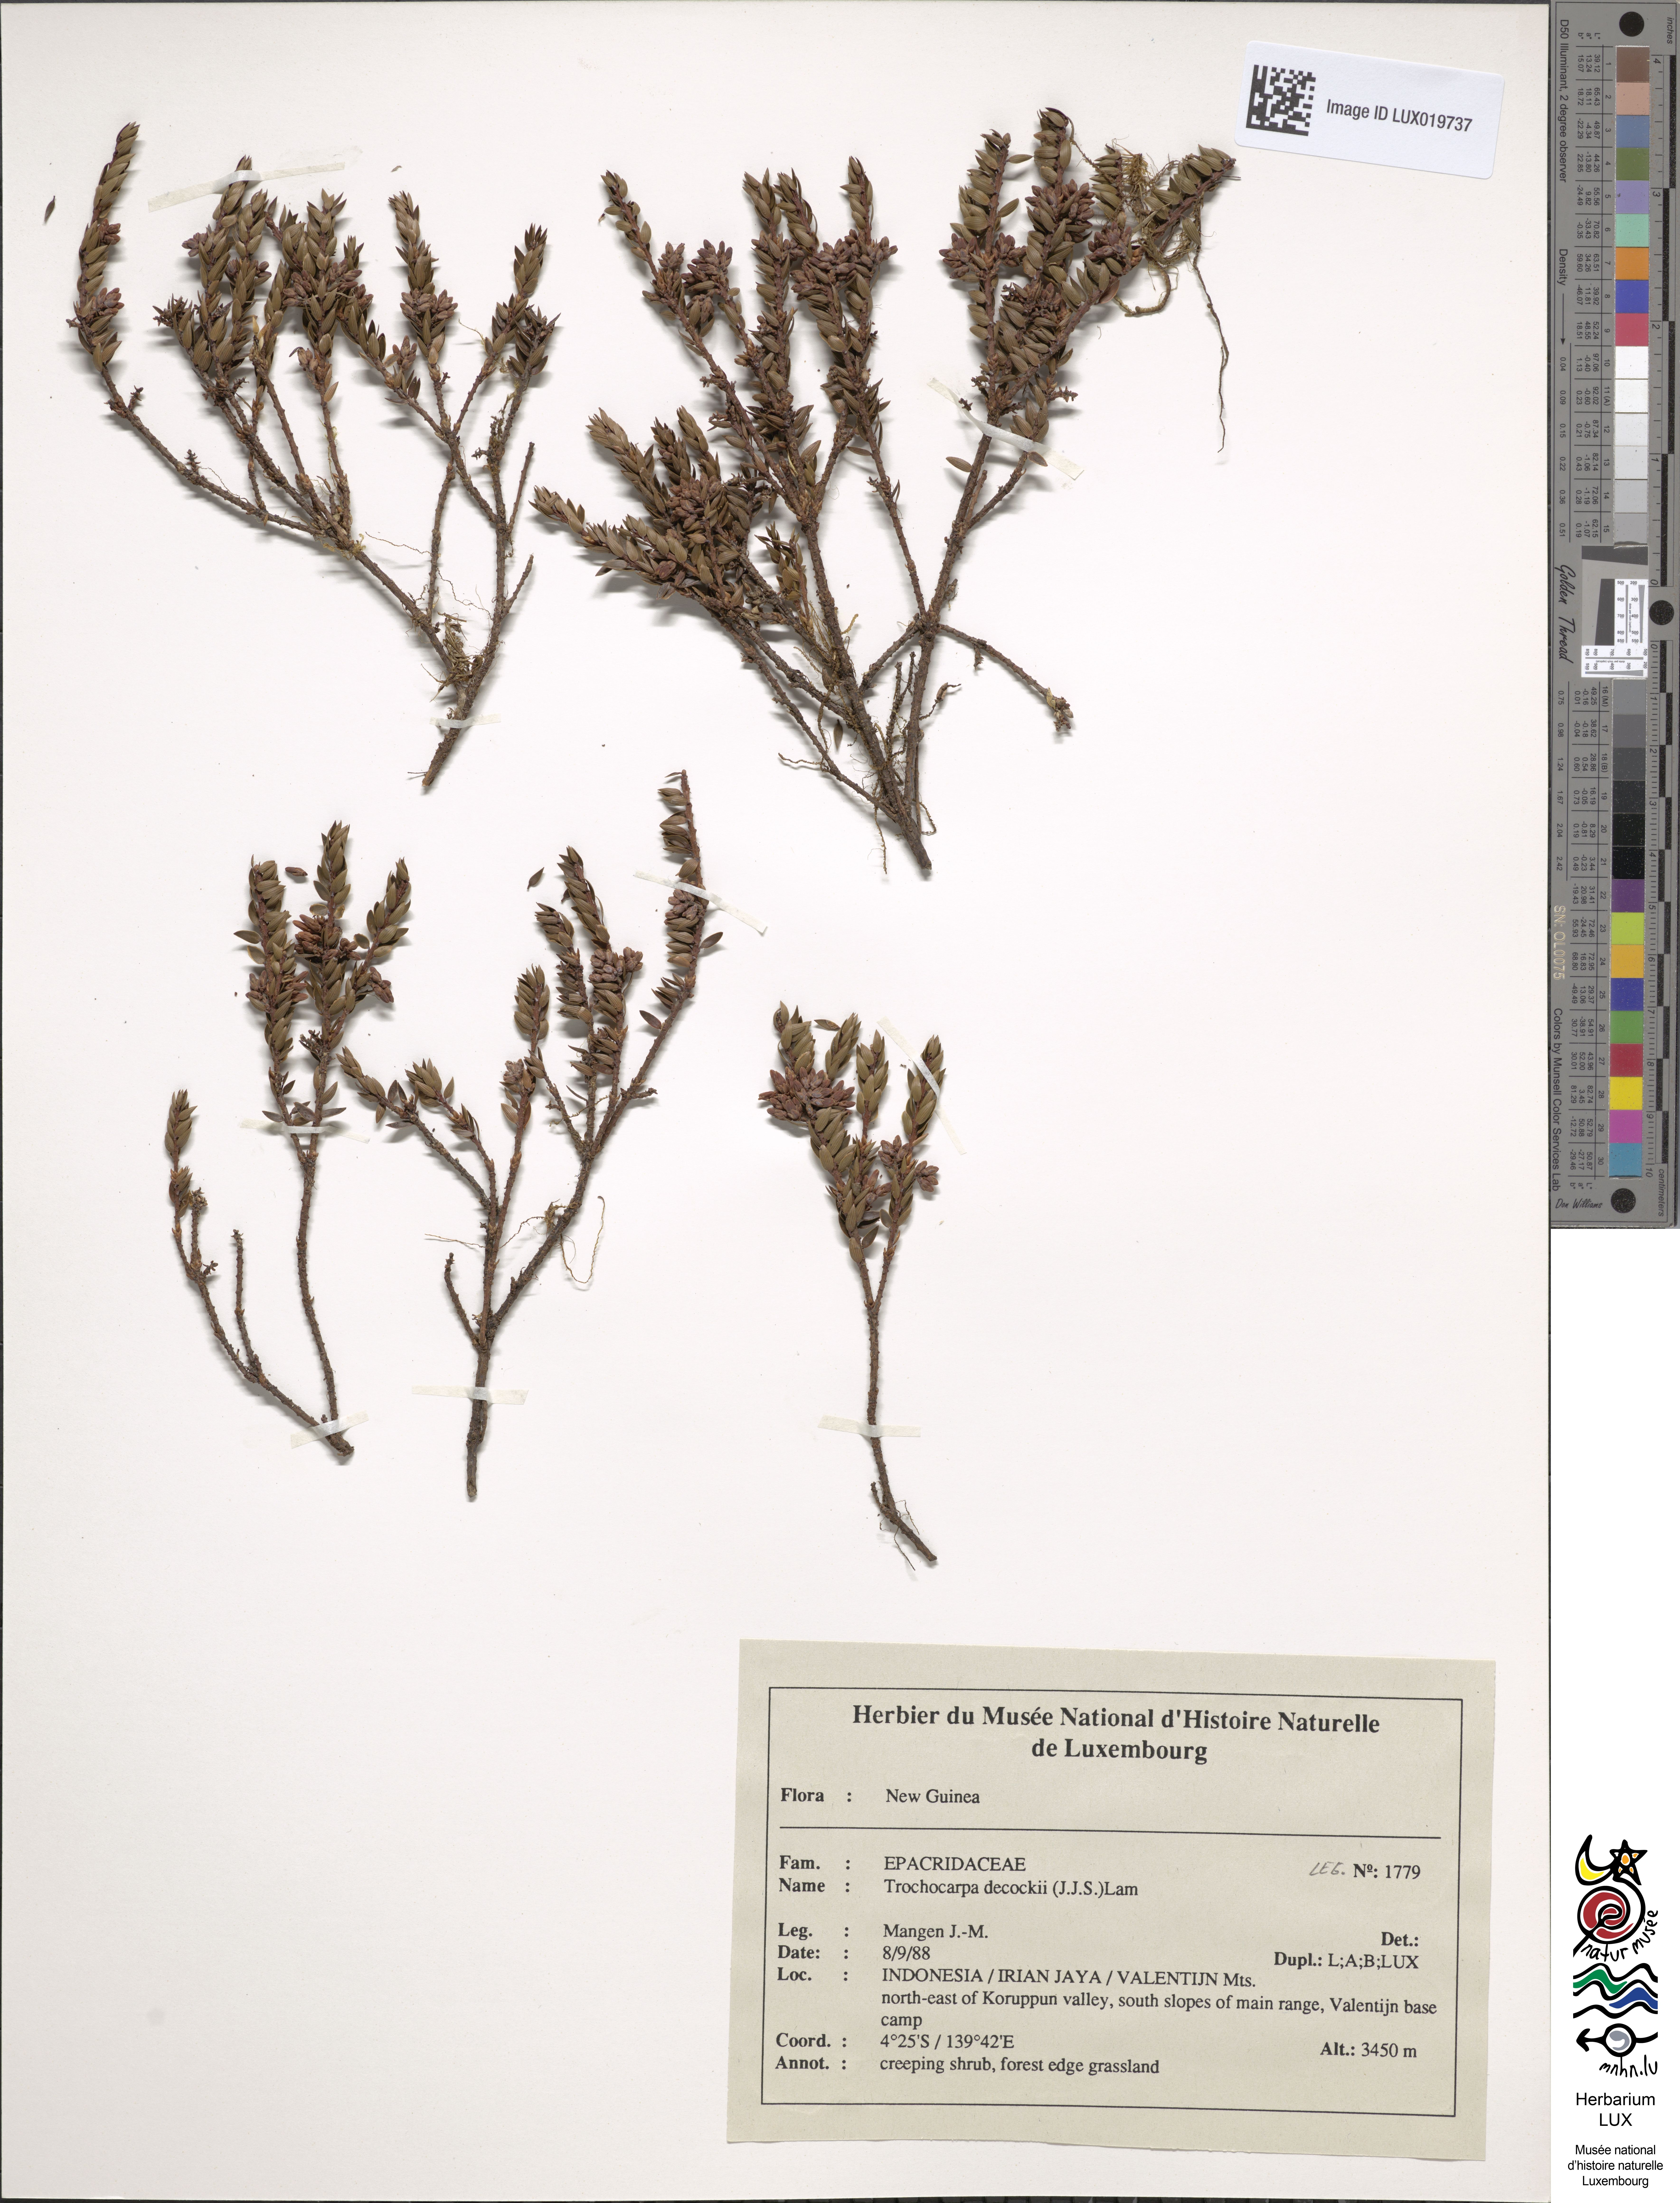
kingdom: Plantae
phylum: Tracheophyta
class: Magnoliopsida
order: Ericales
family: Ericaceae
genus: Trochocarpa
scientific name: Trochocarpa dekockii
